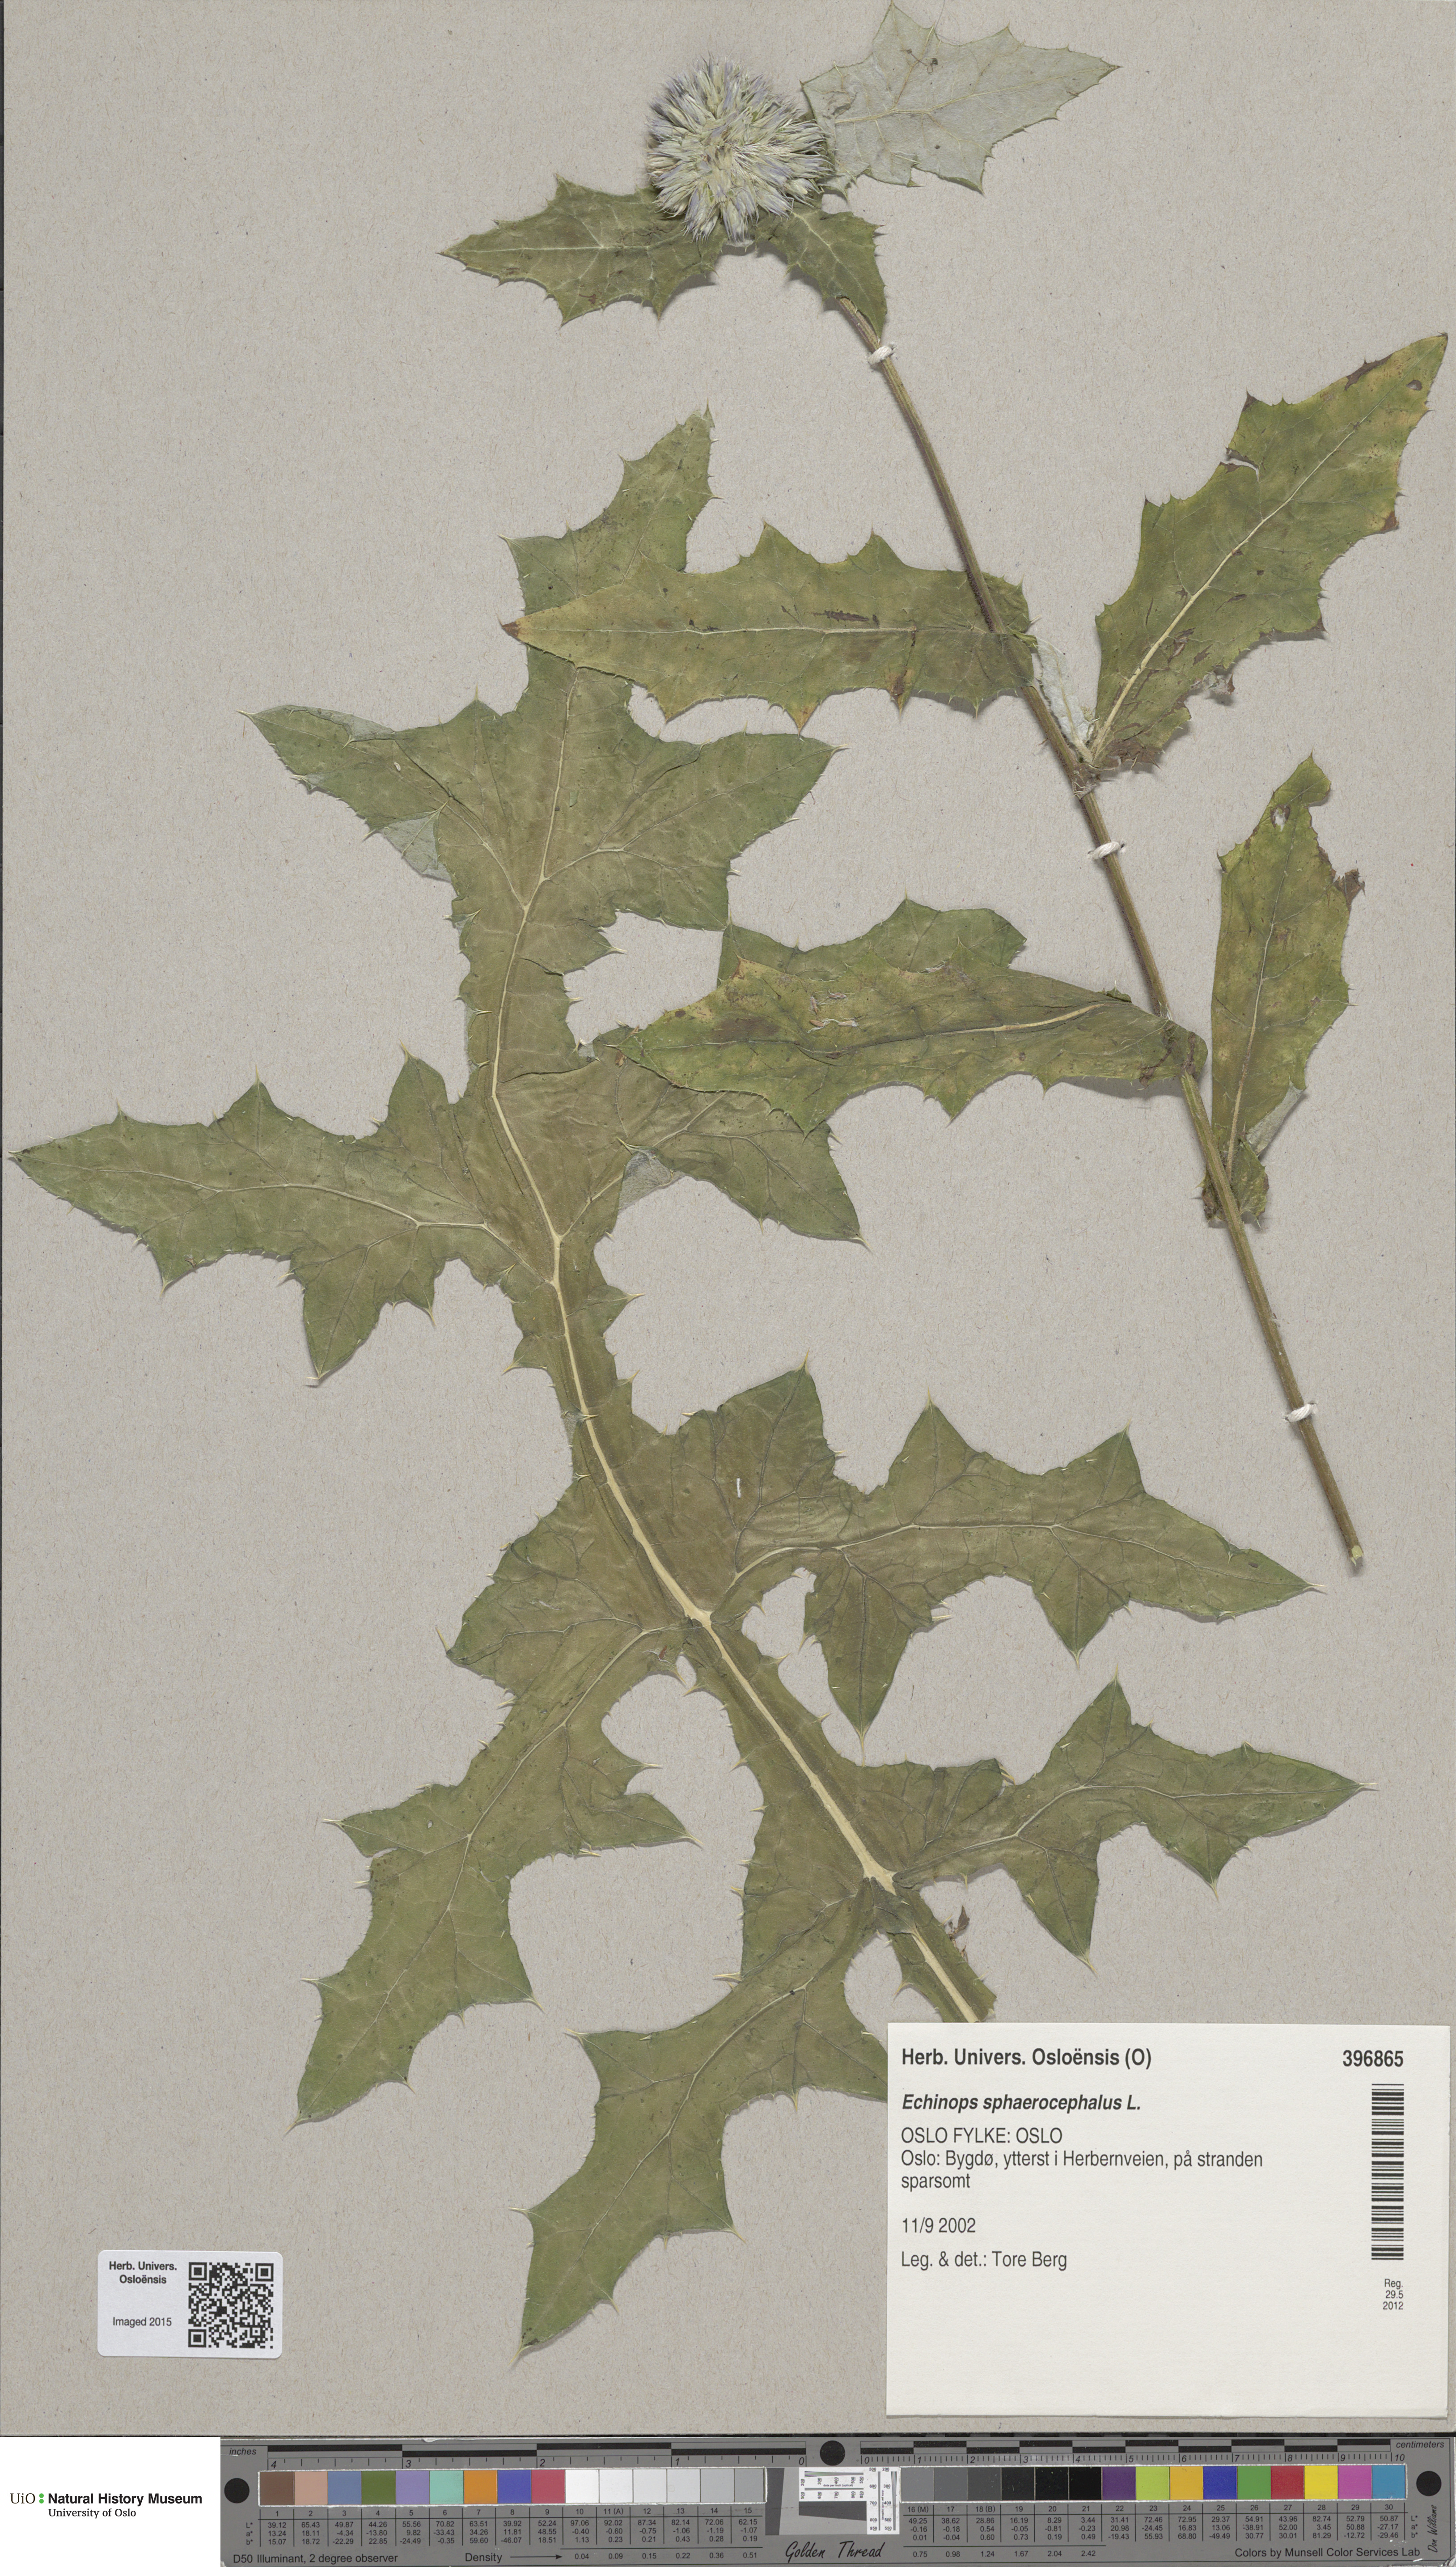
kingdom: Plantae
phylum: Tracheophyta
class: Magnoliopsida
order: Asterales
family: Asteraceae
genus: Echinops
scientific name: Echinops sphaerocephalus
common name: Glandular globe-thistle
